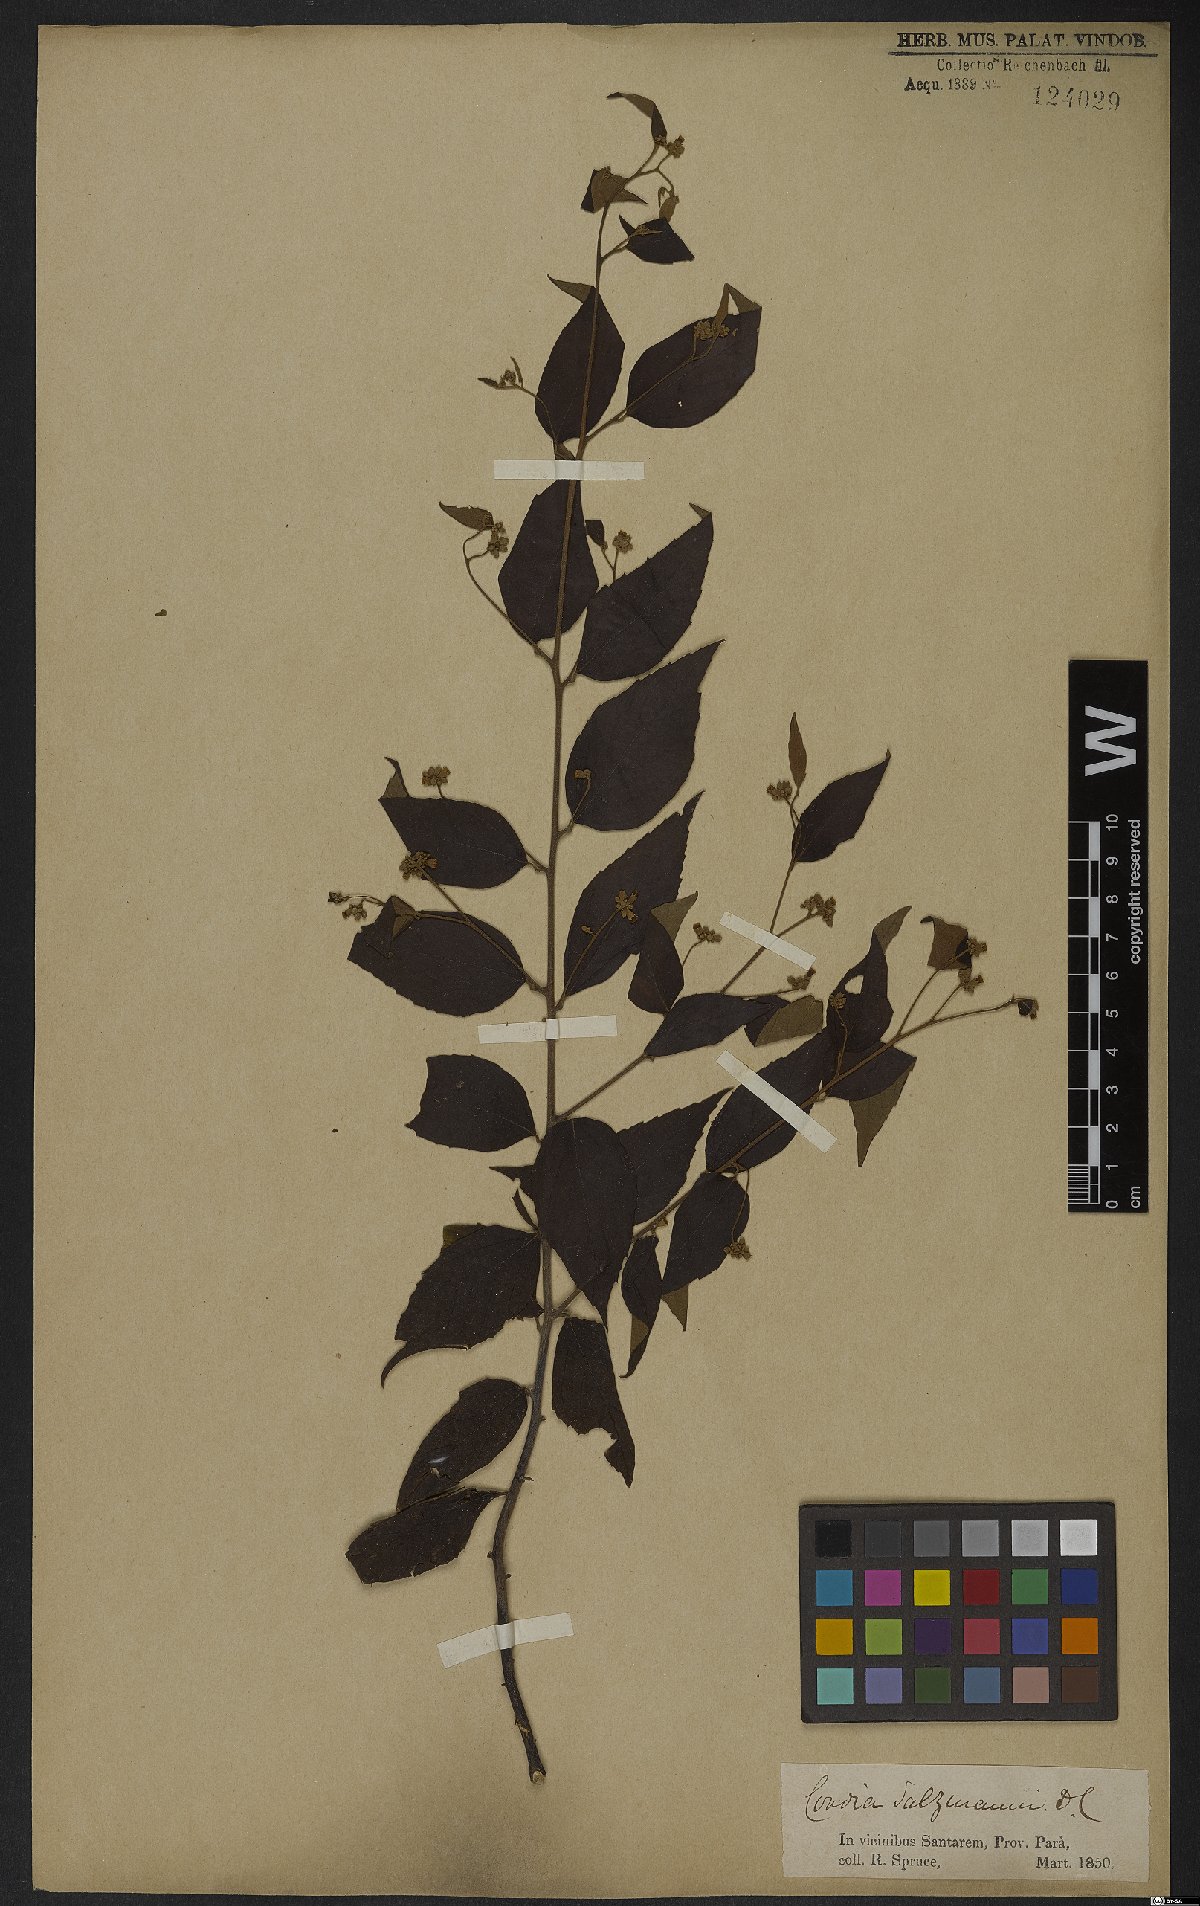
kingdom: Plantae
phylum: Tracheophyta
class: Magnoliopsida
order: Boraginales
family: Cordiaceae
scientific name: Cordiaceae
